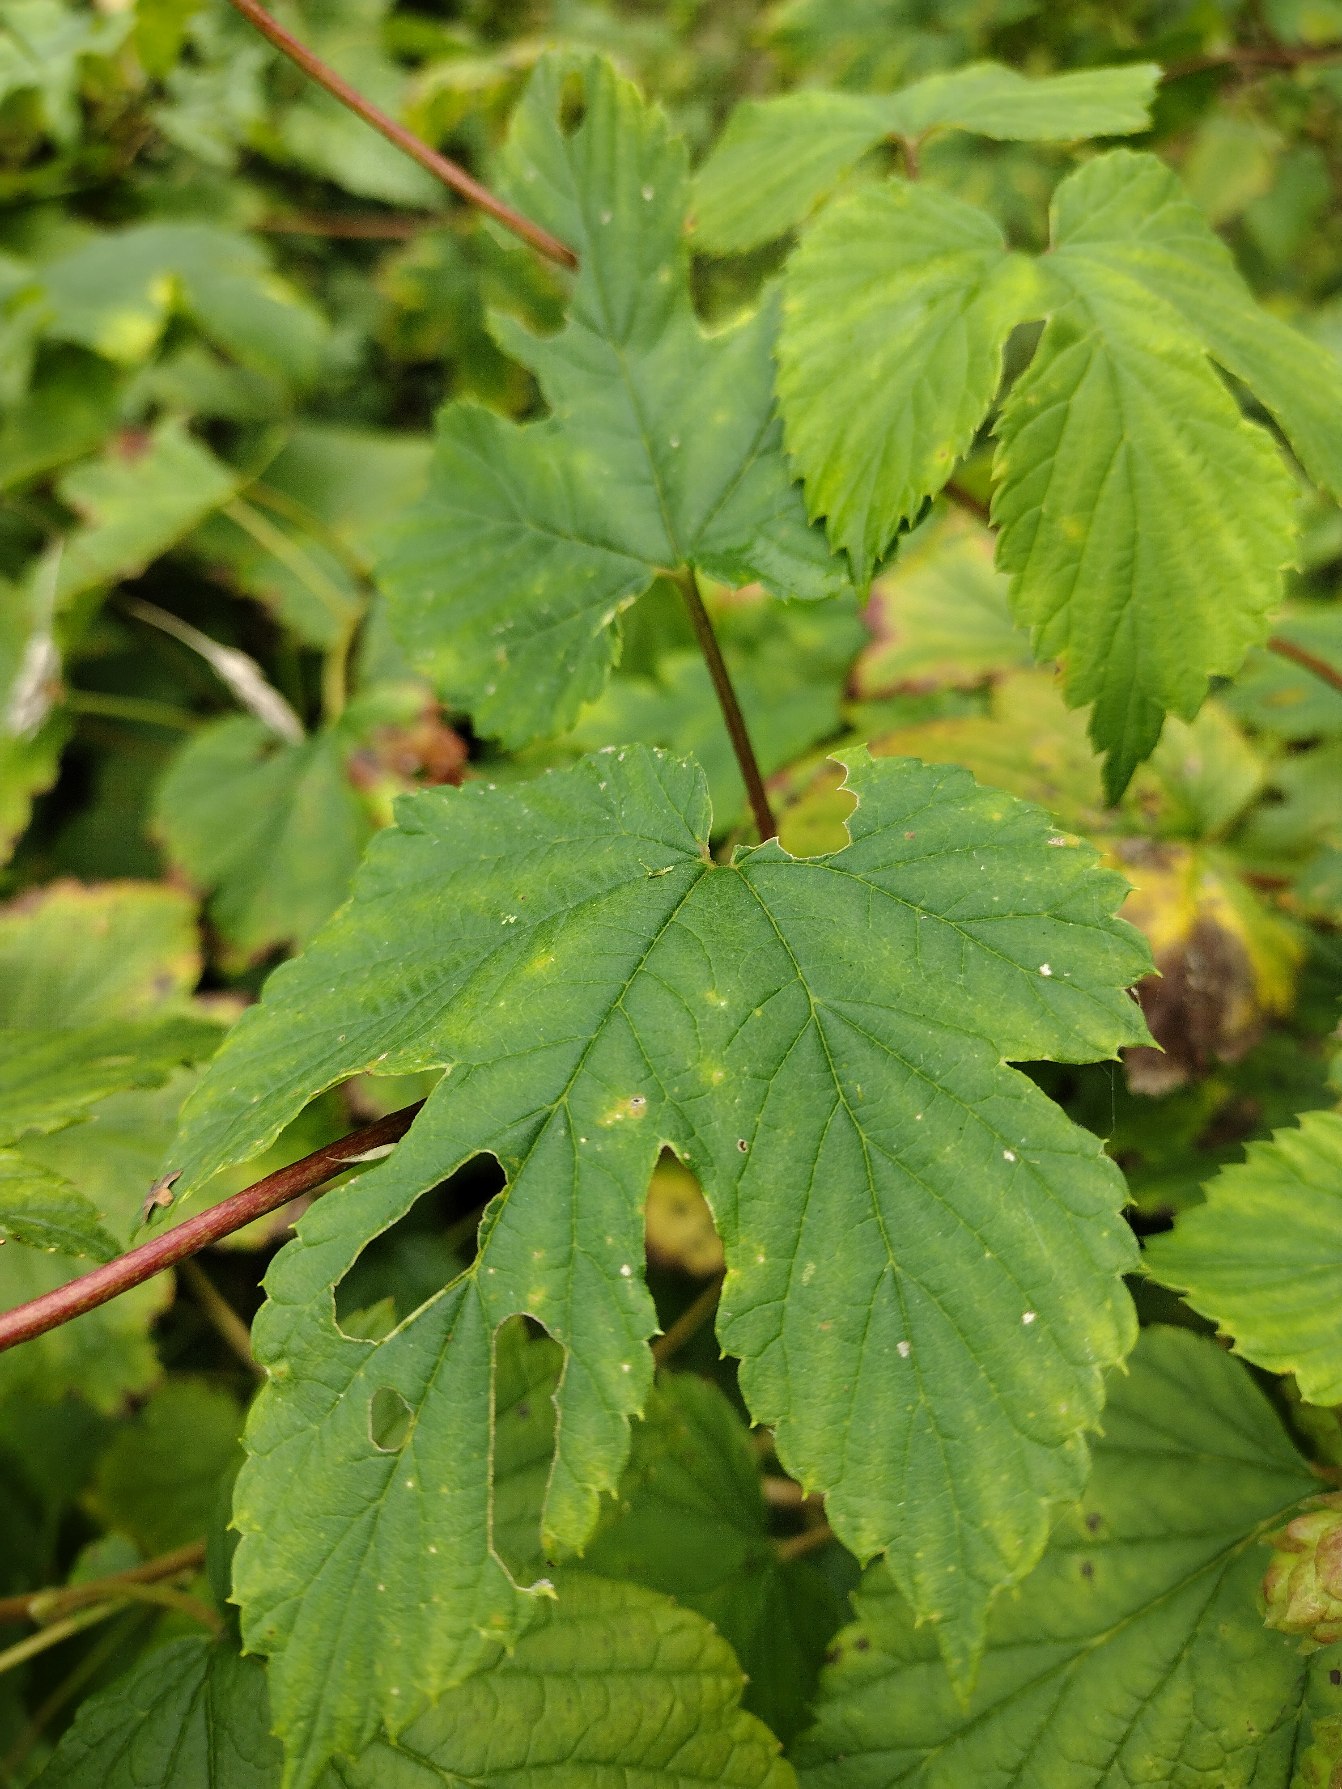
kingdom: Plantae
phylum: Tracheophyta
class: Magnoliopsida
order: Rosales
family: Cannabaceae
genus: Humulus
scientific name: Humulus lupulus
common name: Humle
